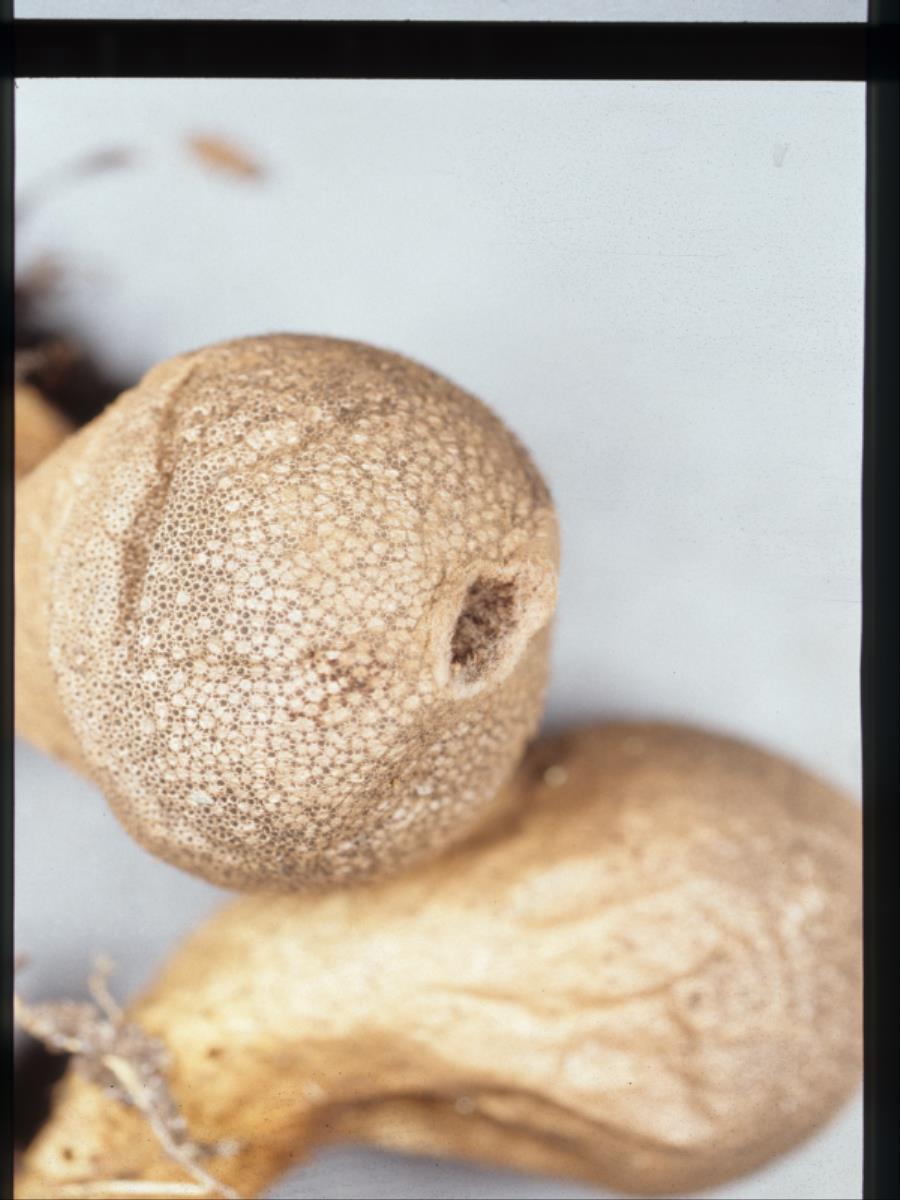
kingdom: Fungi
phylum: Basidiomycota
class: Agaricomycetes
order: Agaricales
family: Lycoperdaceae
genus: Lycoperdon
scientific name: Lycoperdon perlatum
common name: Common puffball
